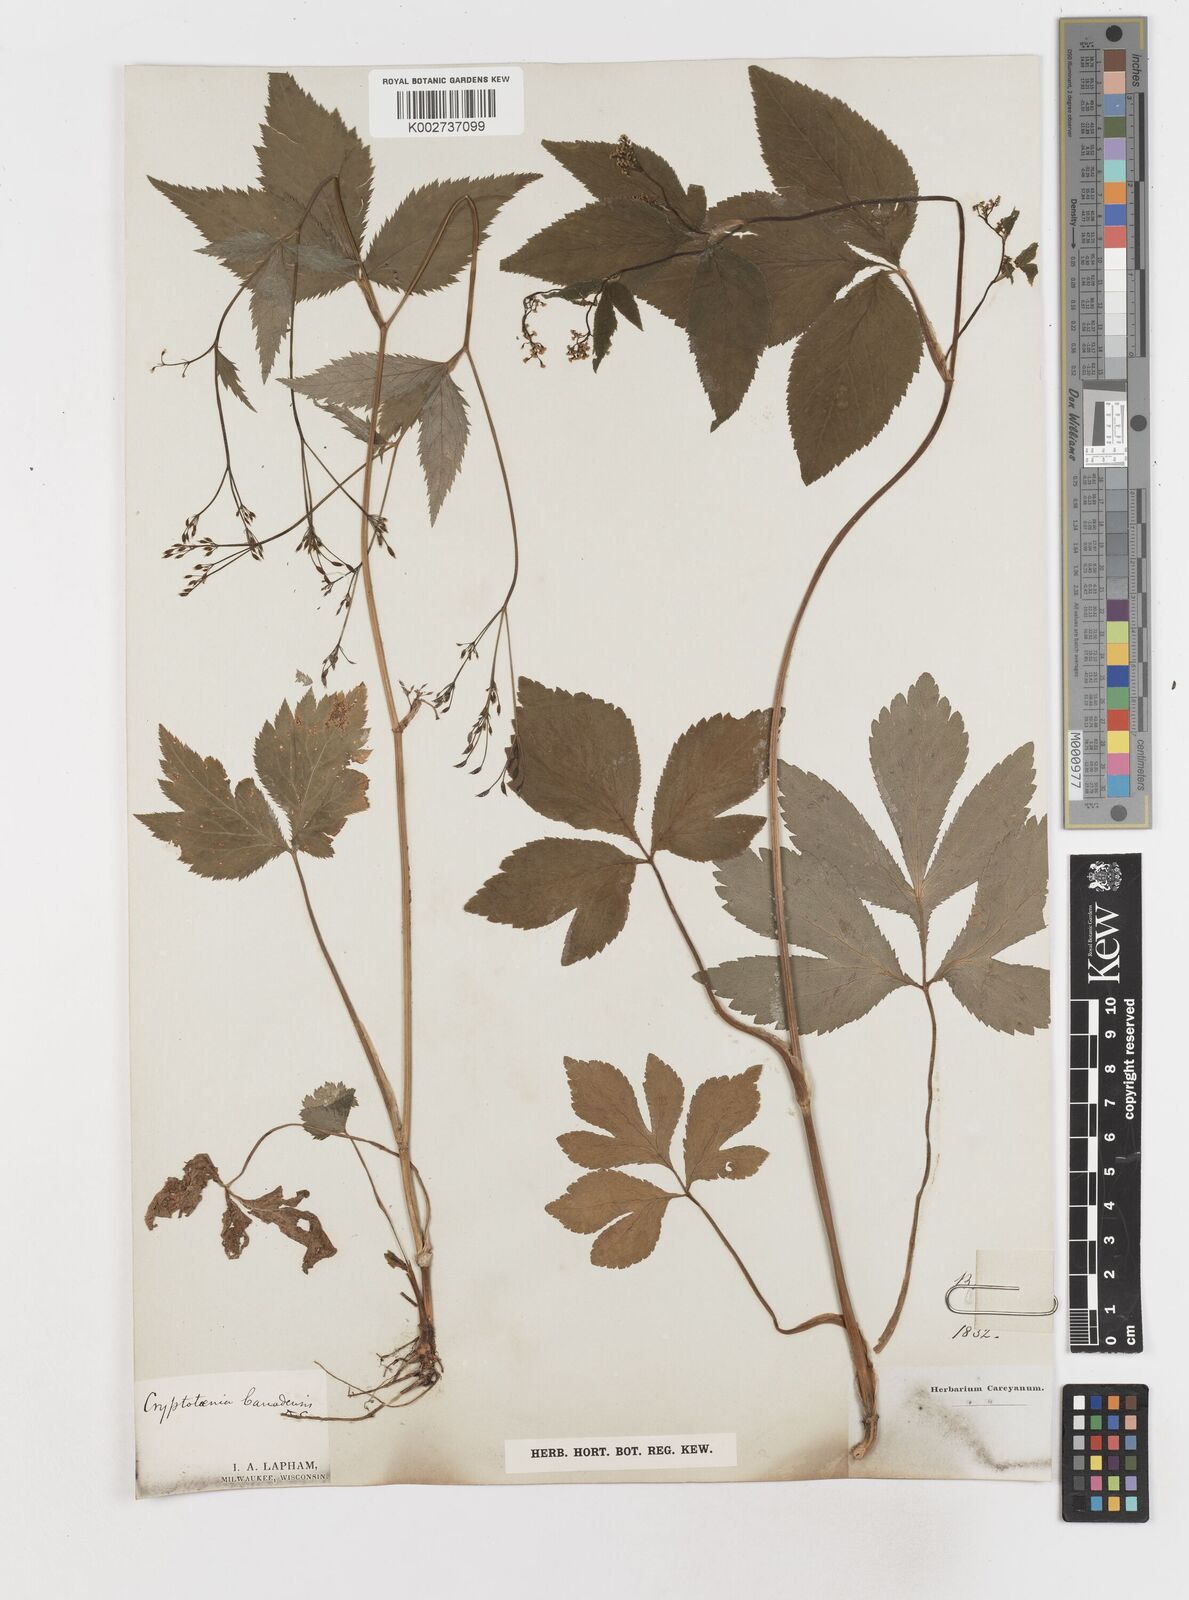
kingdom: Plantae
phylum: Tracheophyta
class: Magnoliopsida
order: Apiales
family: Apiaceae
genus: Cryptotaenia
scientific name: Cryptotaenia
